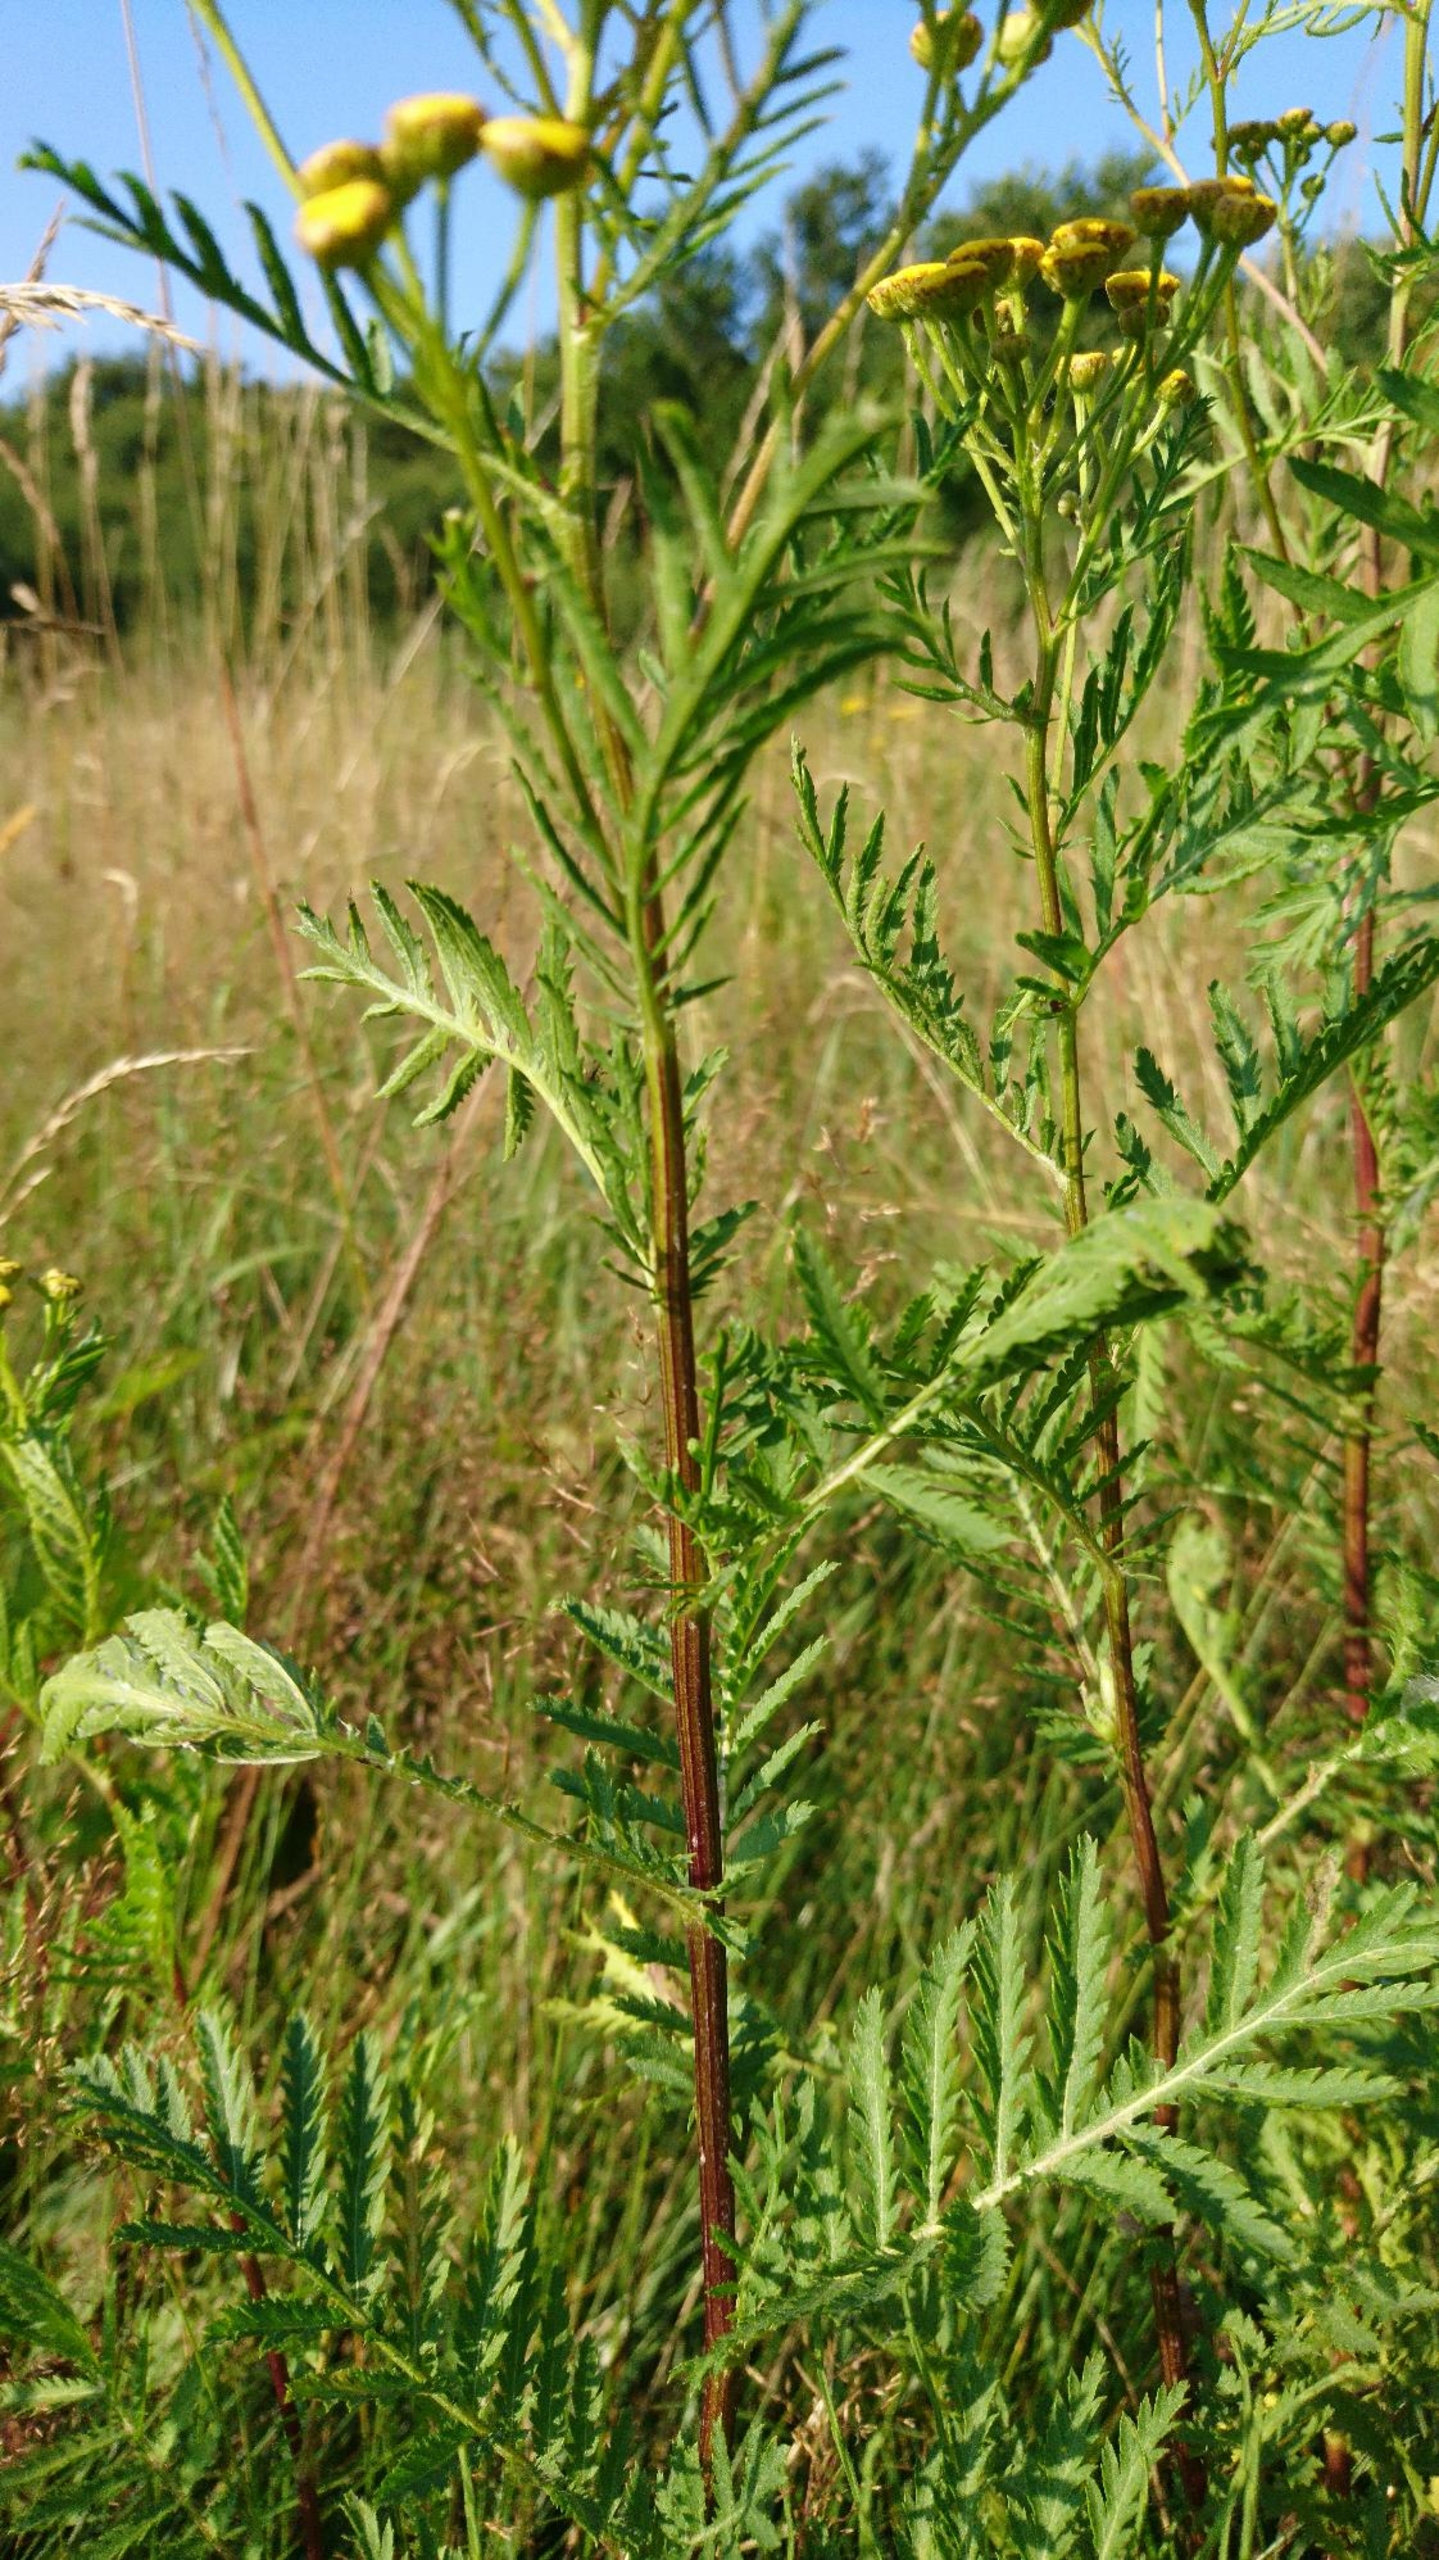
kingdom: Plantae
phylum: Tracheophyta
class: Magnoliopsida
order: Asterales
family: Asteraceae
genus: Tanacetum
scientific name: Tanacetum vulgare
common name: Rejnfan
